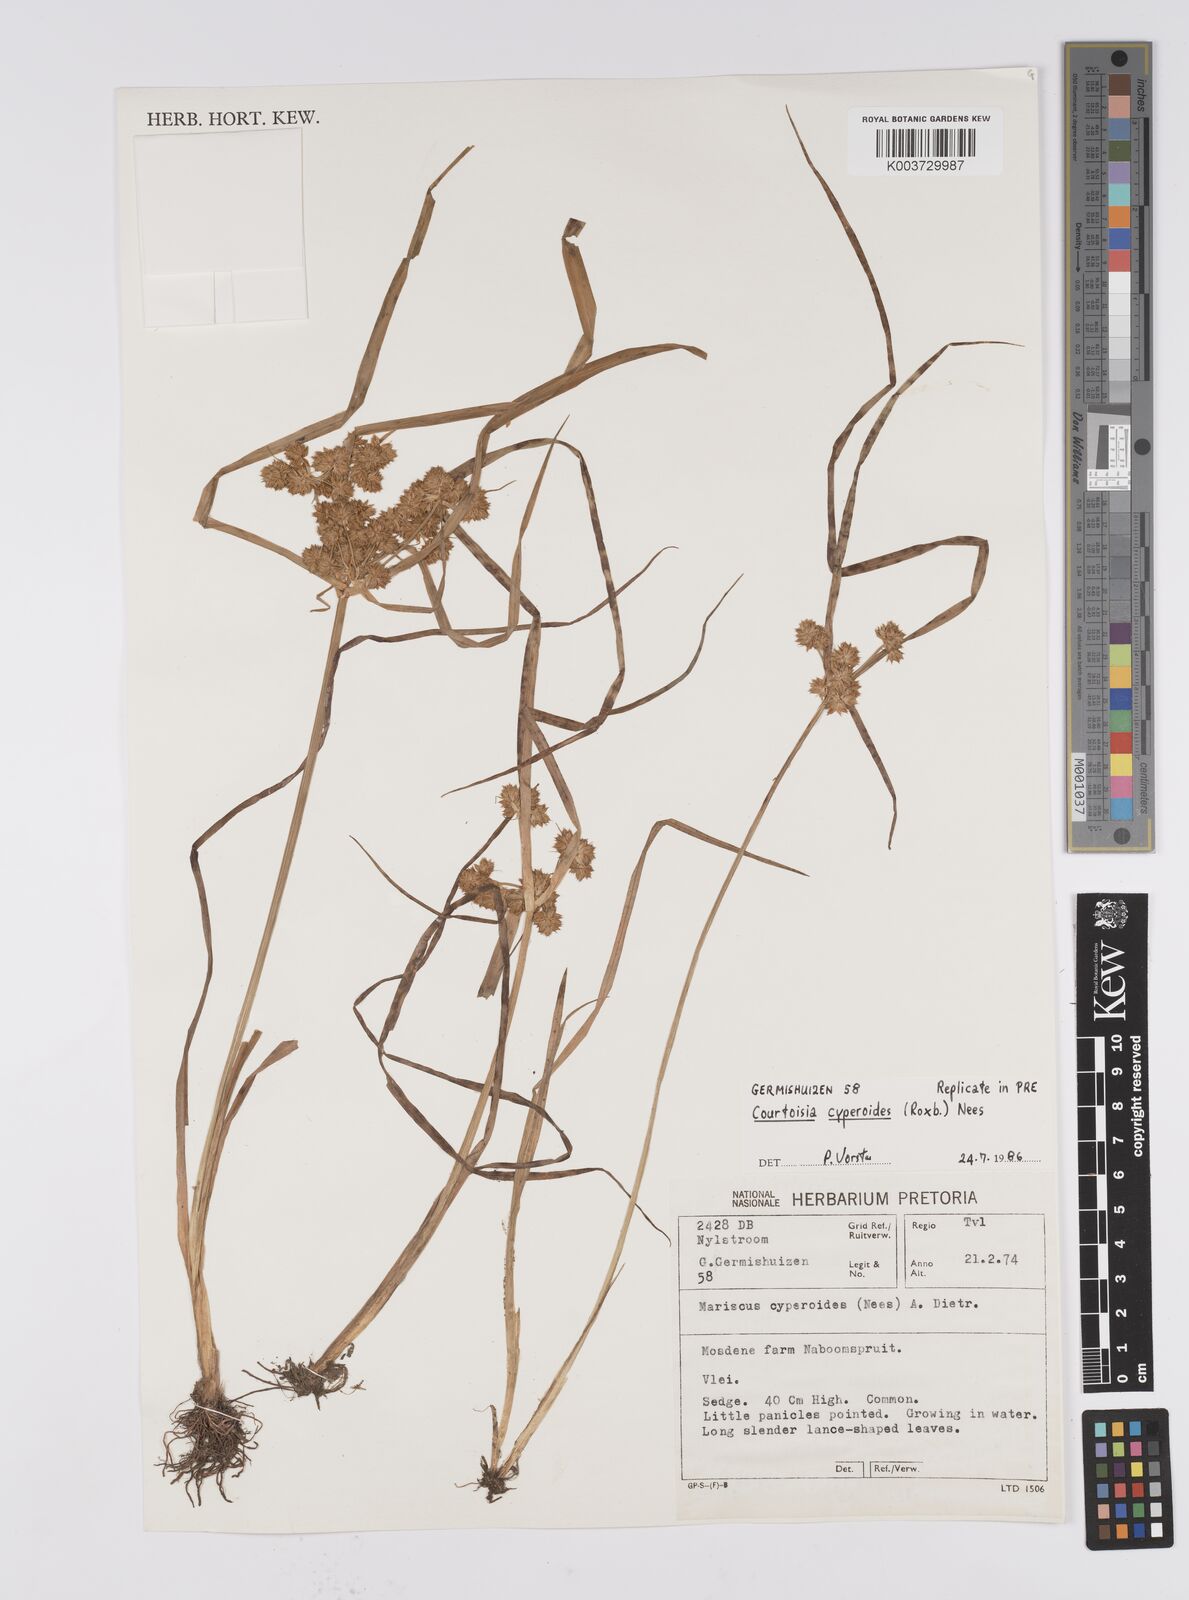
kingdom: Plantae
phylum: Tracheophyta
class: Liliopsida
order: Poales
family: Cyperaceae
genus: Cyperus
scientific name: Cyperus cyperoides
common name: Pacific island flat sedge
